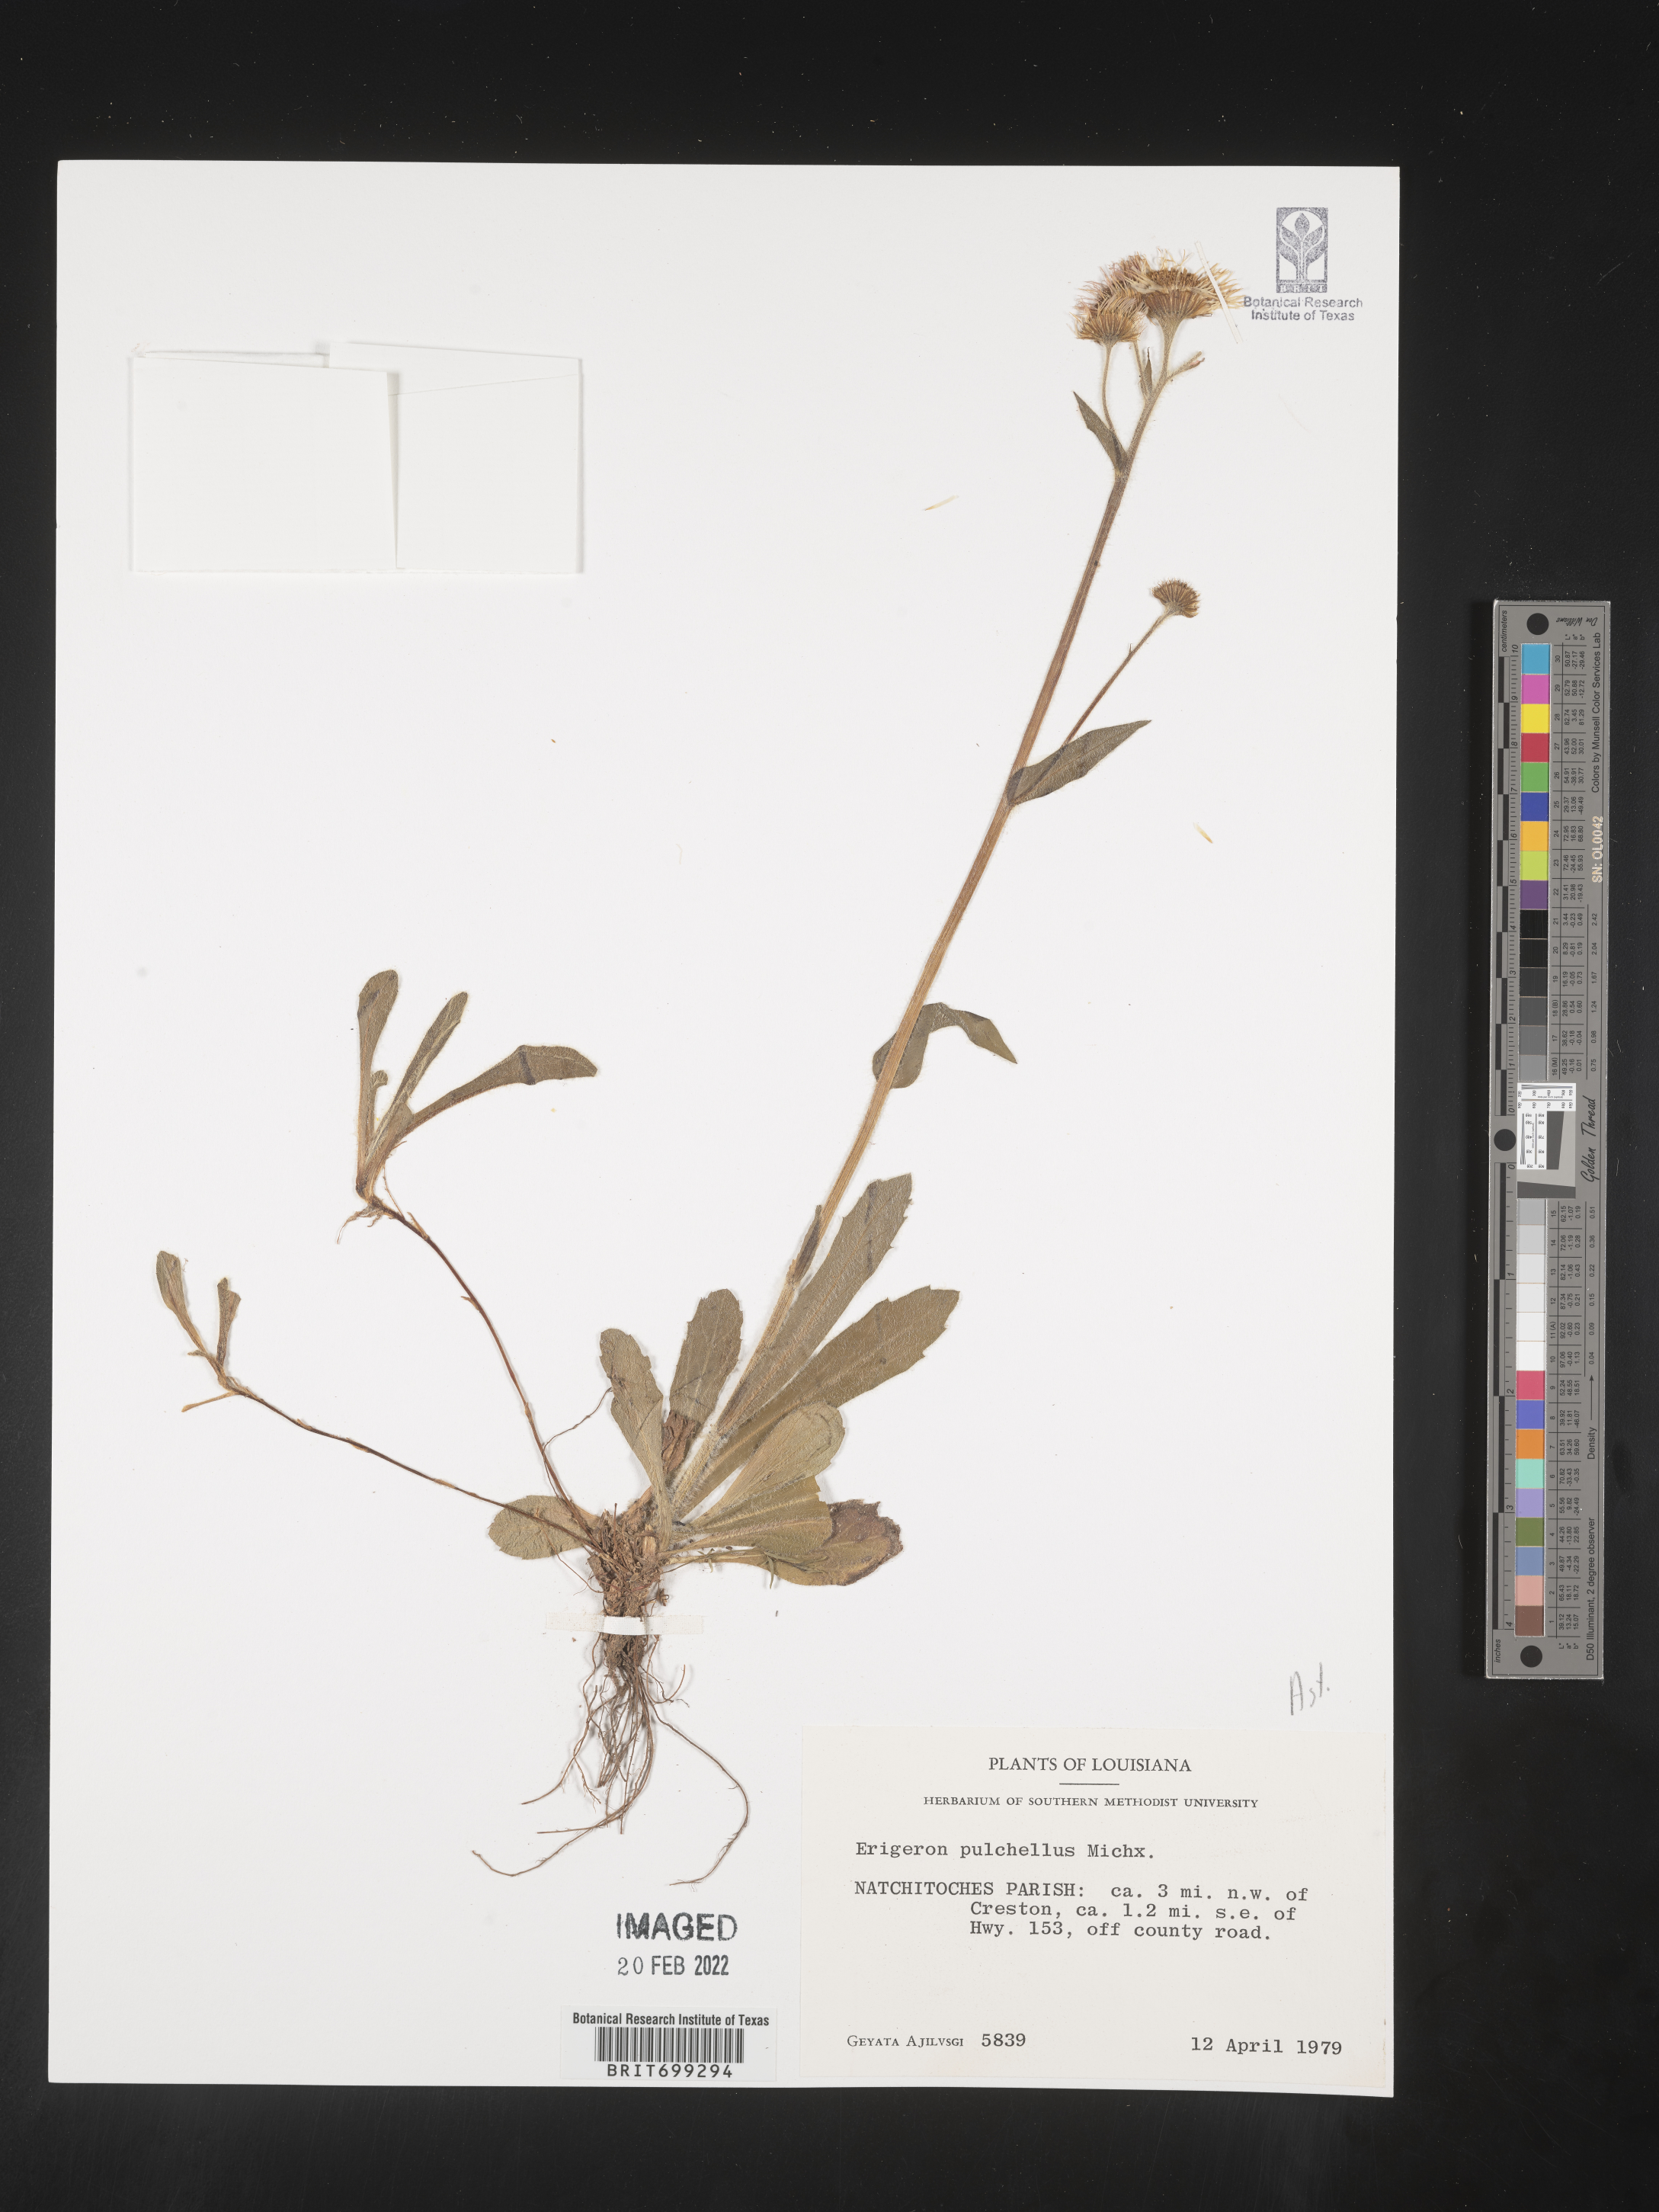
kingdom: Plantae
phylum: Tracheophyta
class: Magnoliopsida
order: Asterales
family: Asteraceae
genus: Erigeron
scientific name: Erigeron pulchellus
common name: Hairy fleabane
